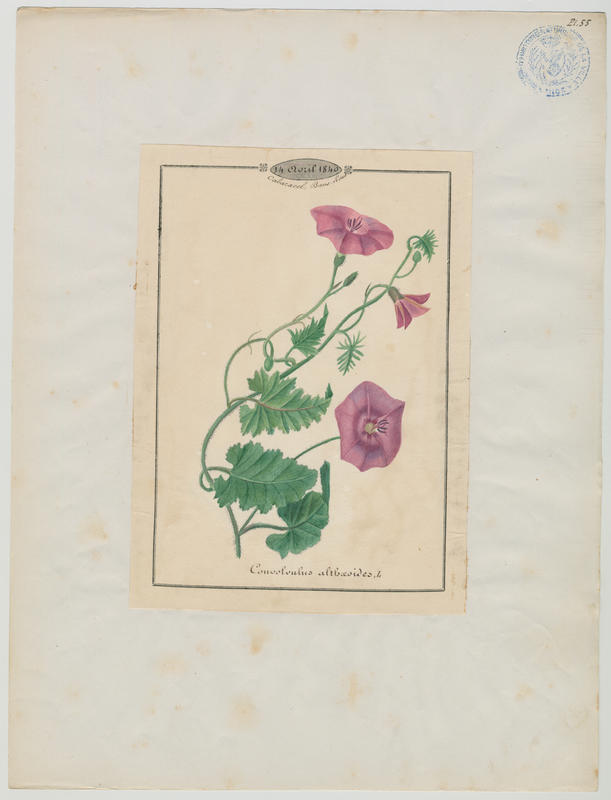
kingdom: Plantae
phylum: Tracheophyta
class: Magnoliopsida
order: Solanales
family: Convolvulaceae
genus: Convolvulus
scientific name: Convolvulus althaeoides
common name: Mallow bindweed
